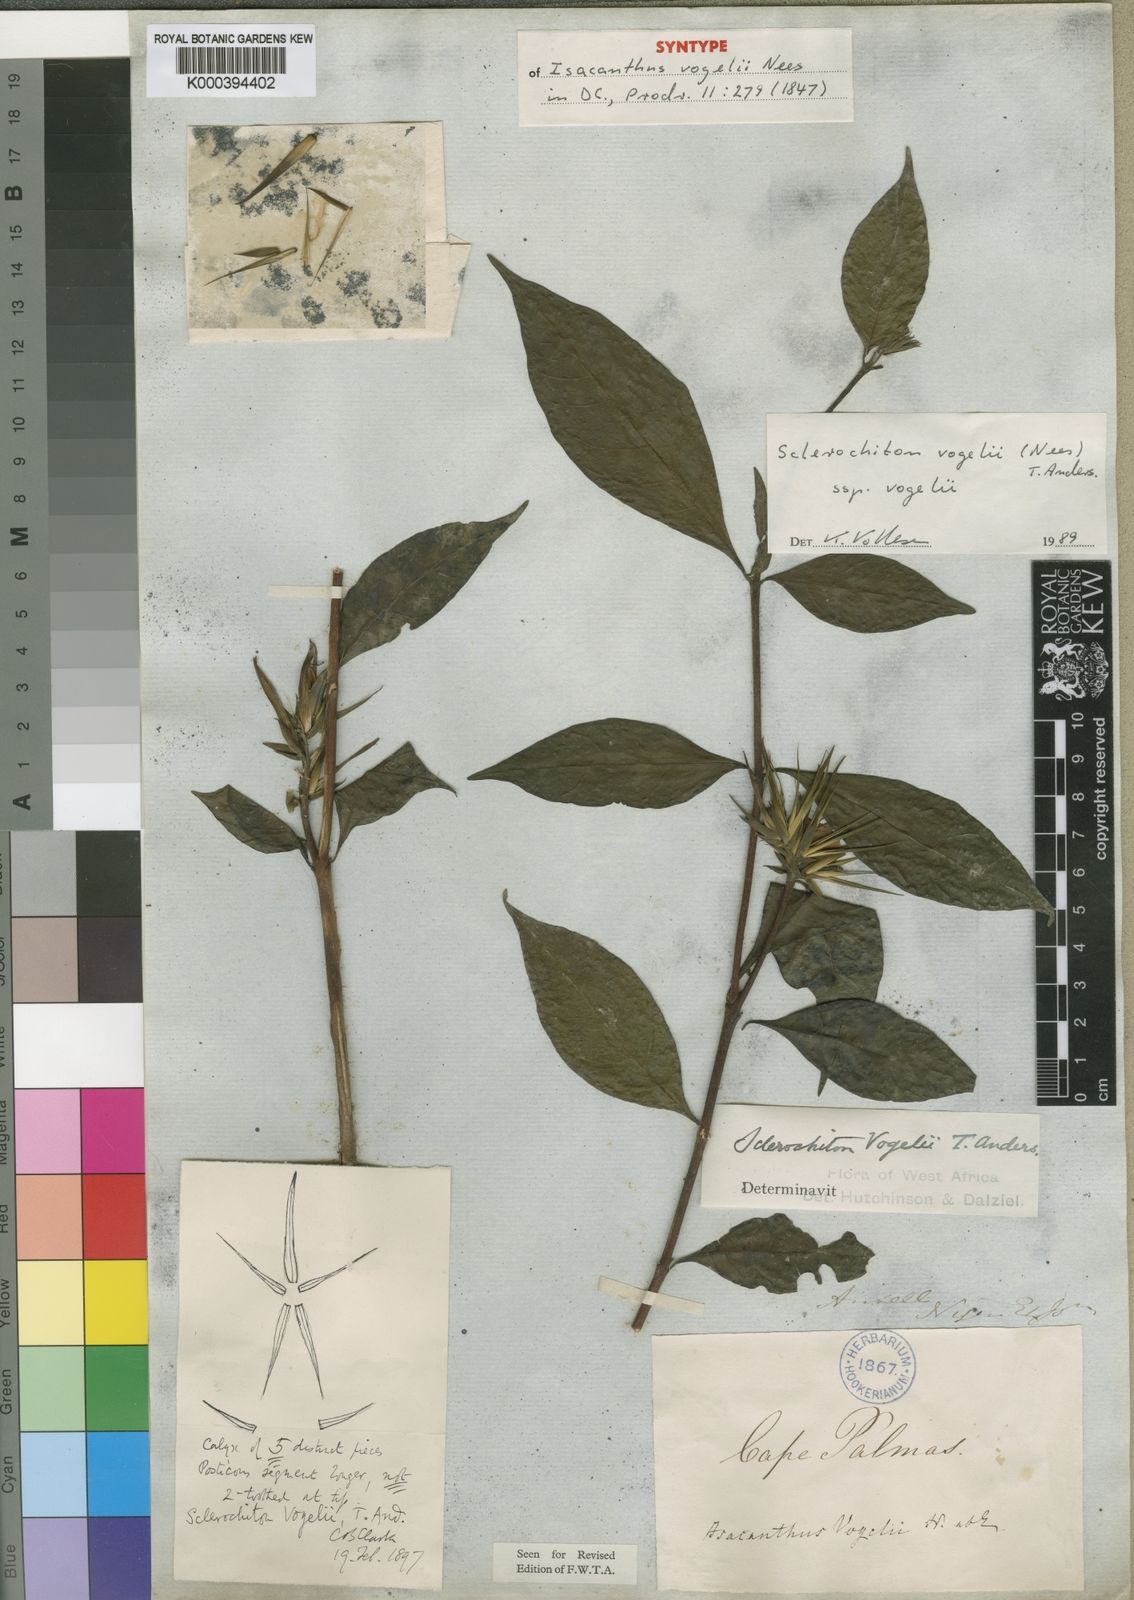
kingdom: Plantae
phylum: Tracheophyta
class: Magnoliopsida
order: Lamiales
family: Acanthaceae
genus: Sclerochiton
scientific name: Sclerochiton vogelii
